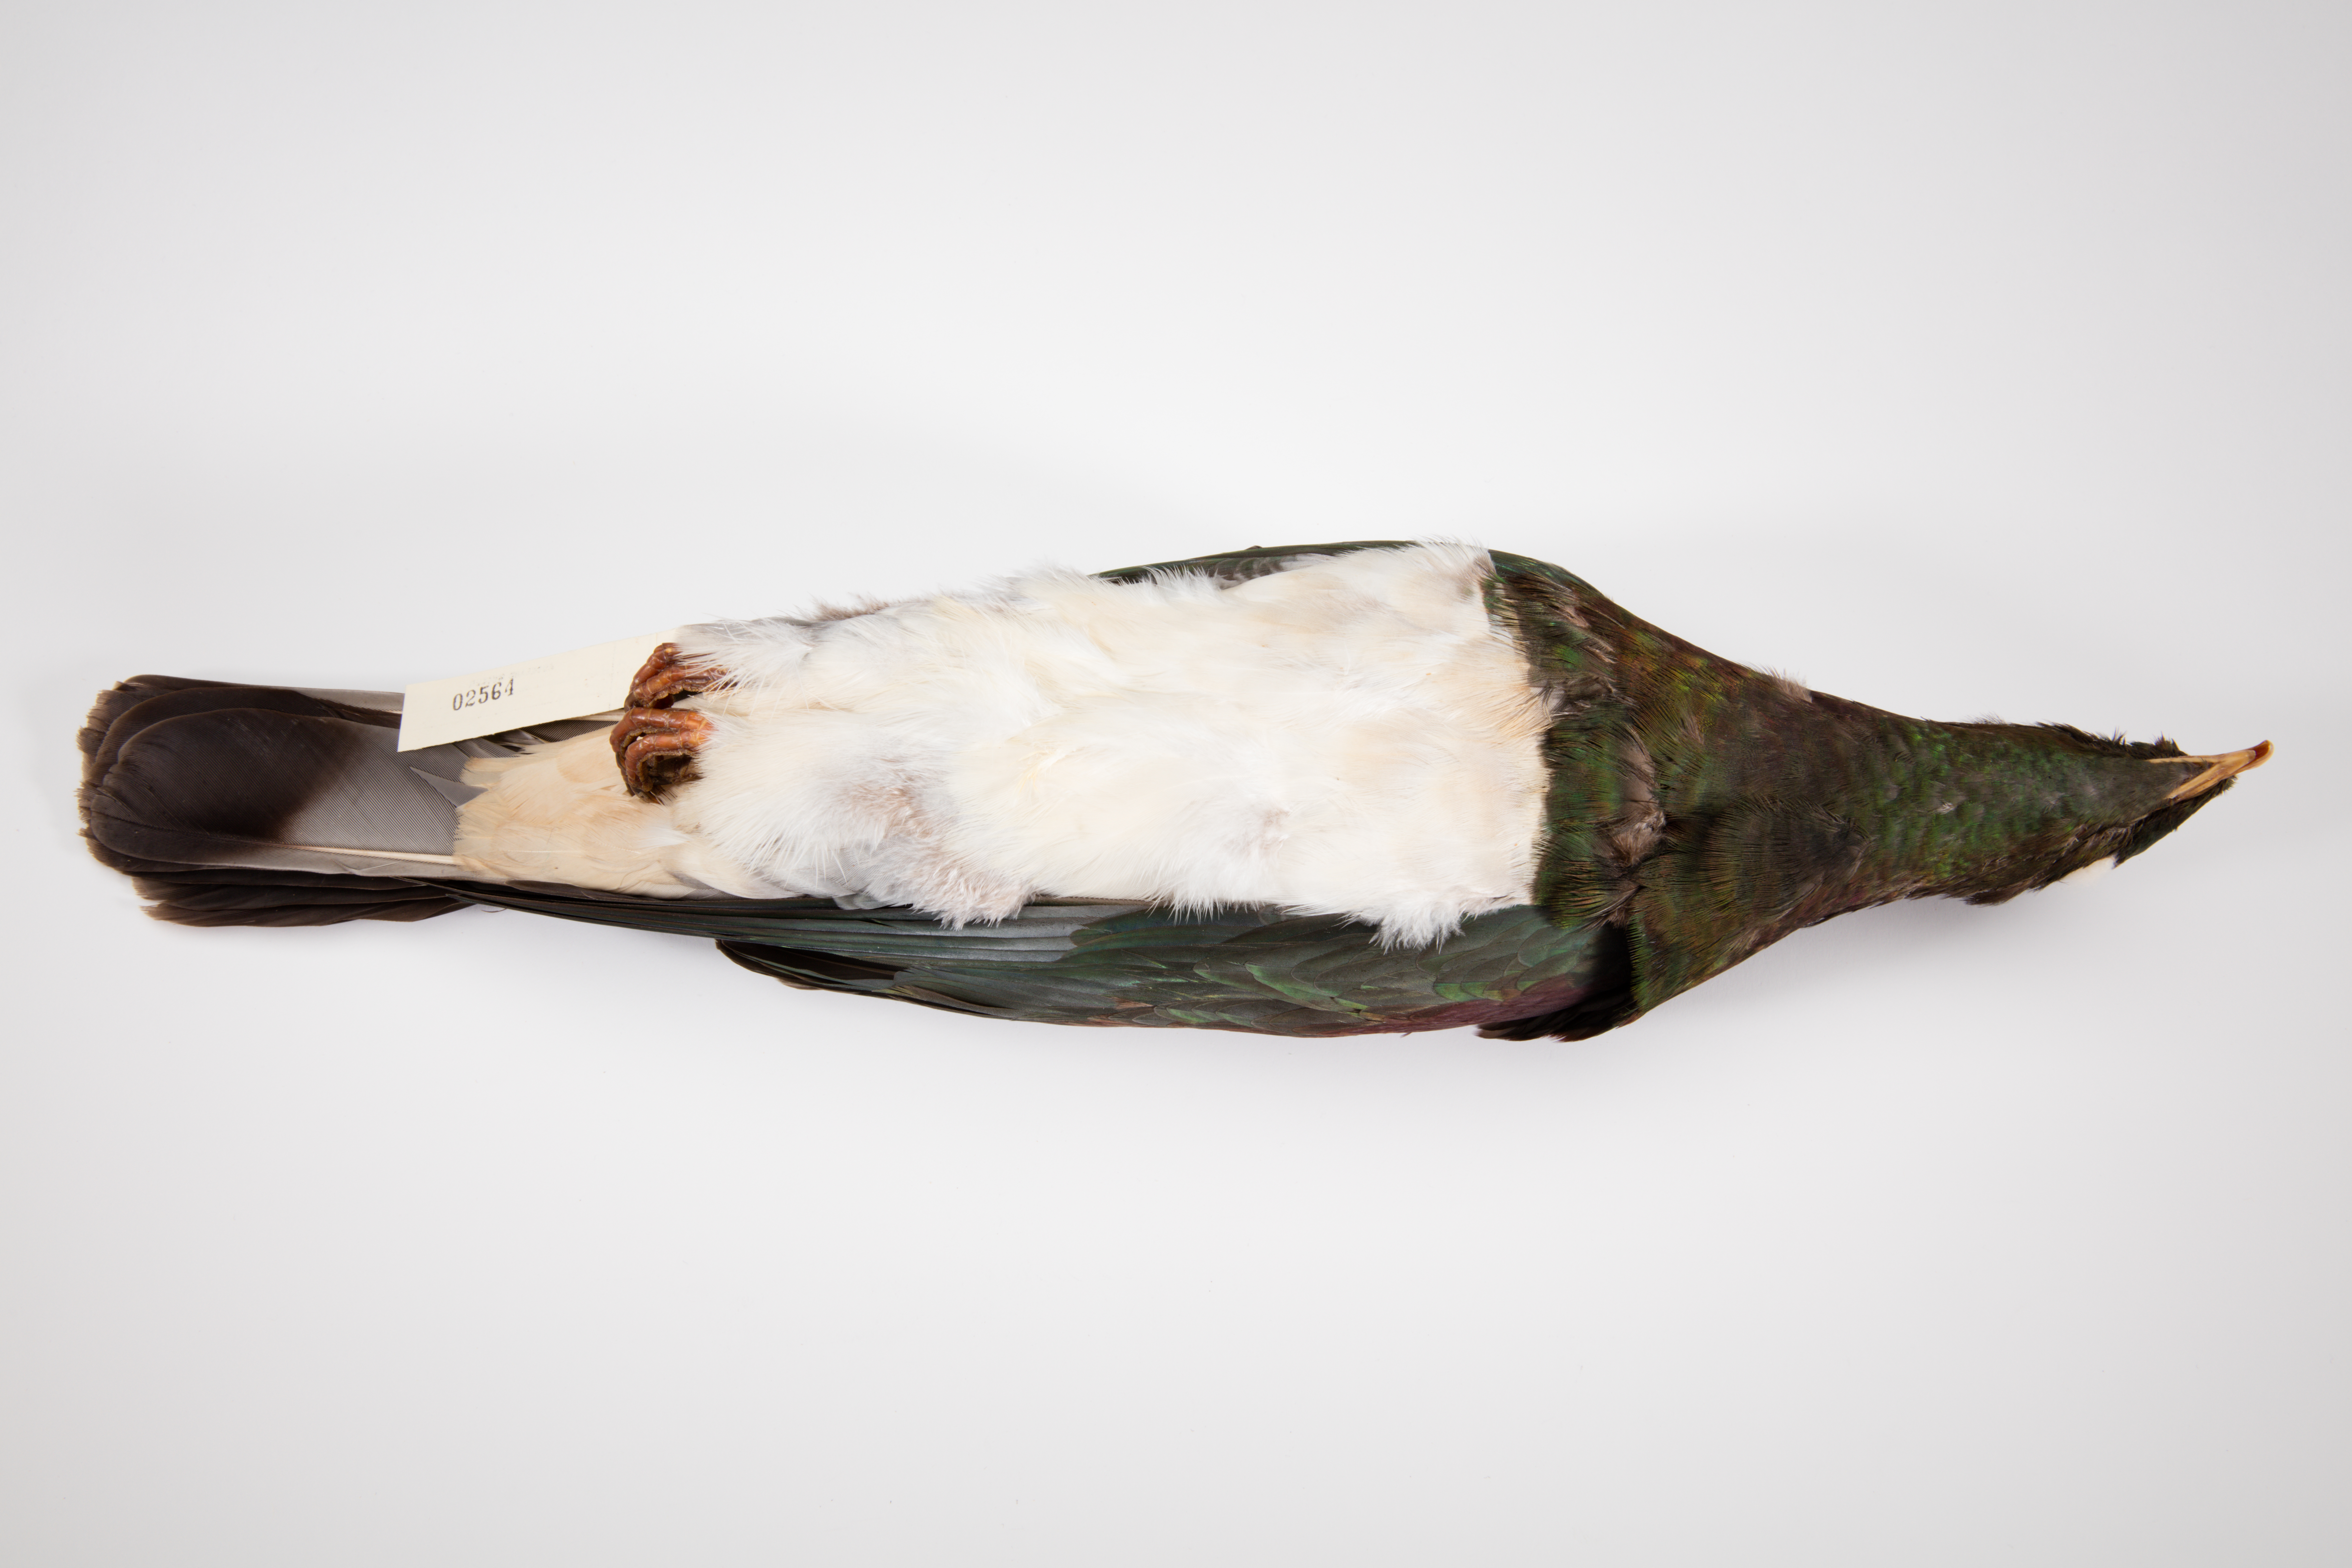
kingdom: Animalia
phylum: Chordata
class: Aves
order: Columbiformes
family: Columbidae
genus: Hemiphaga
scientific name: Hemiphaga novaeseelandiae
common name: New zealand pigeon
